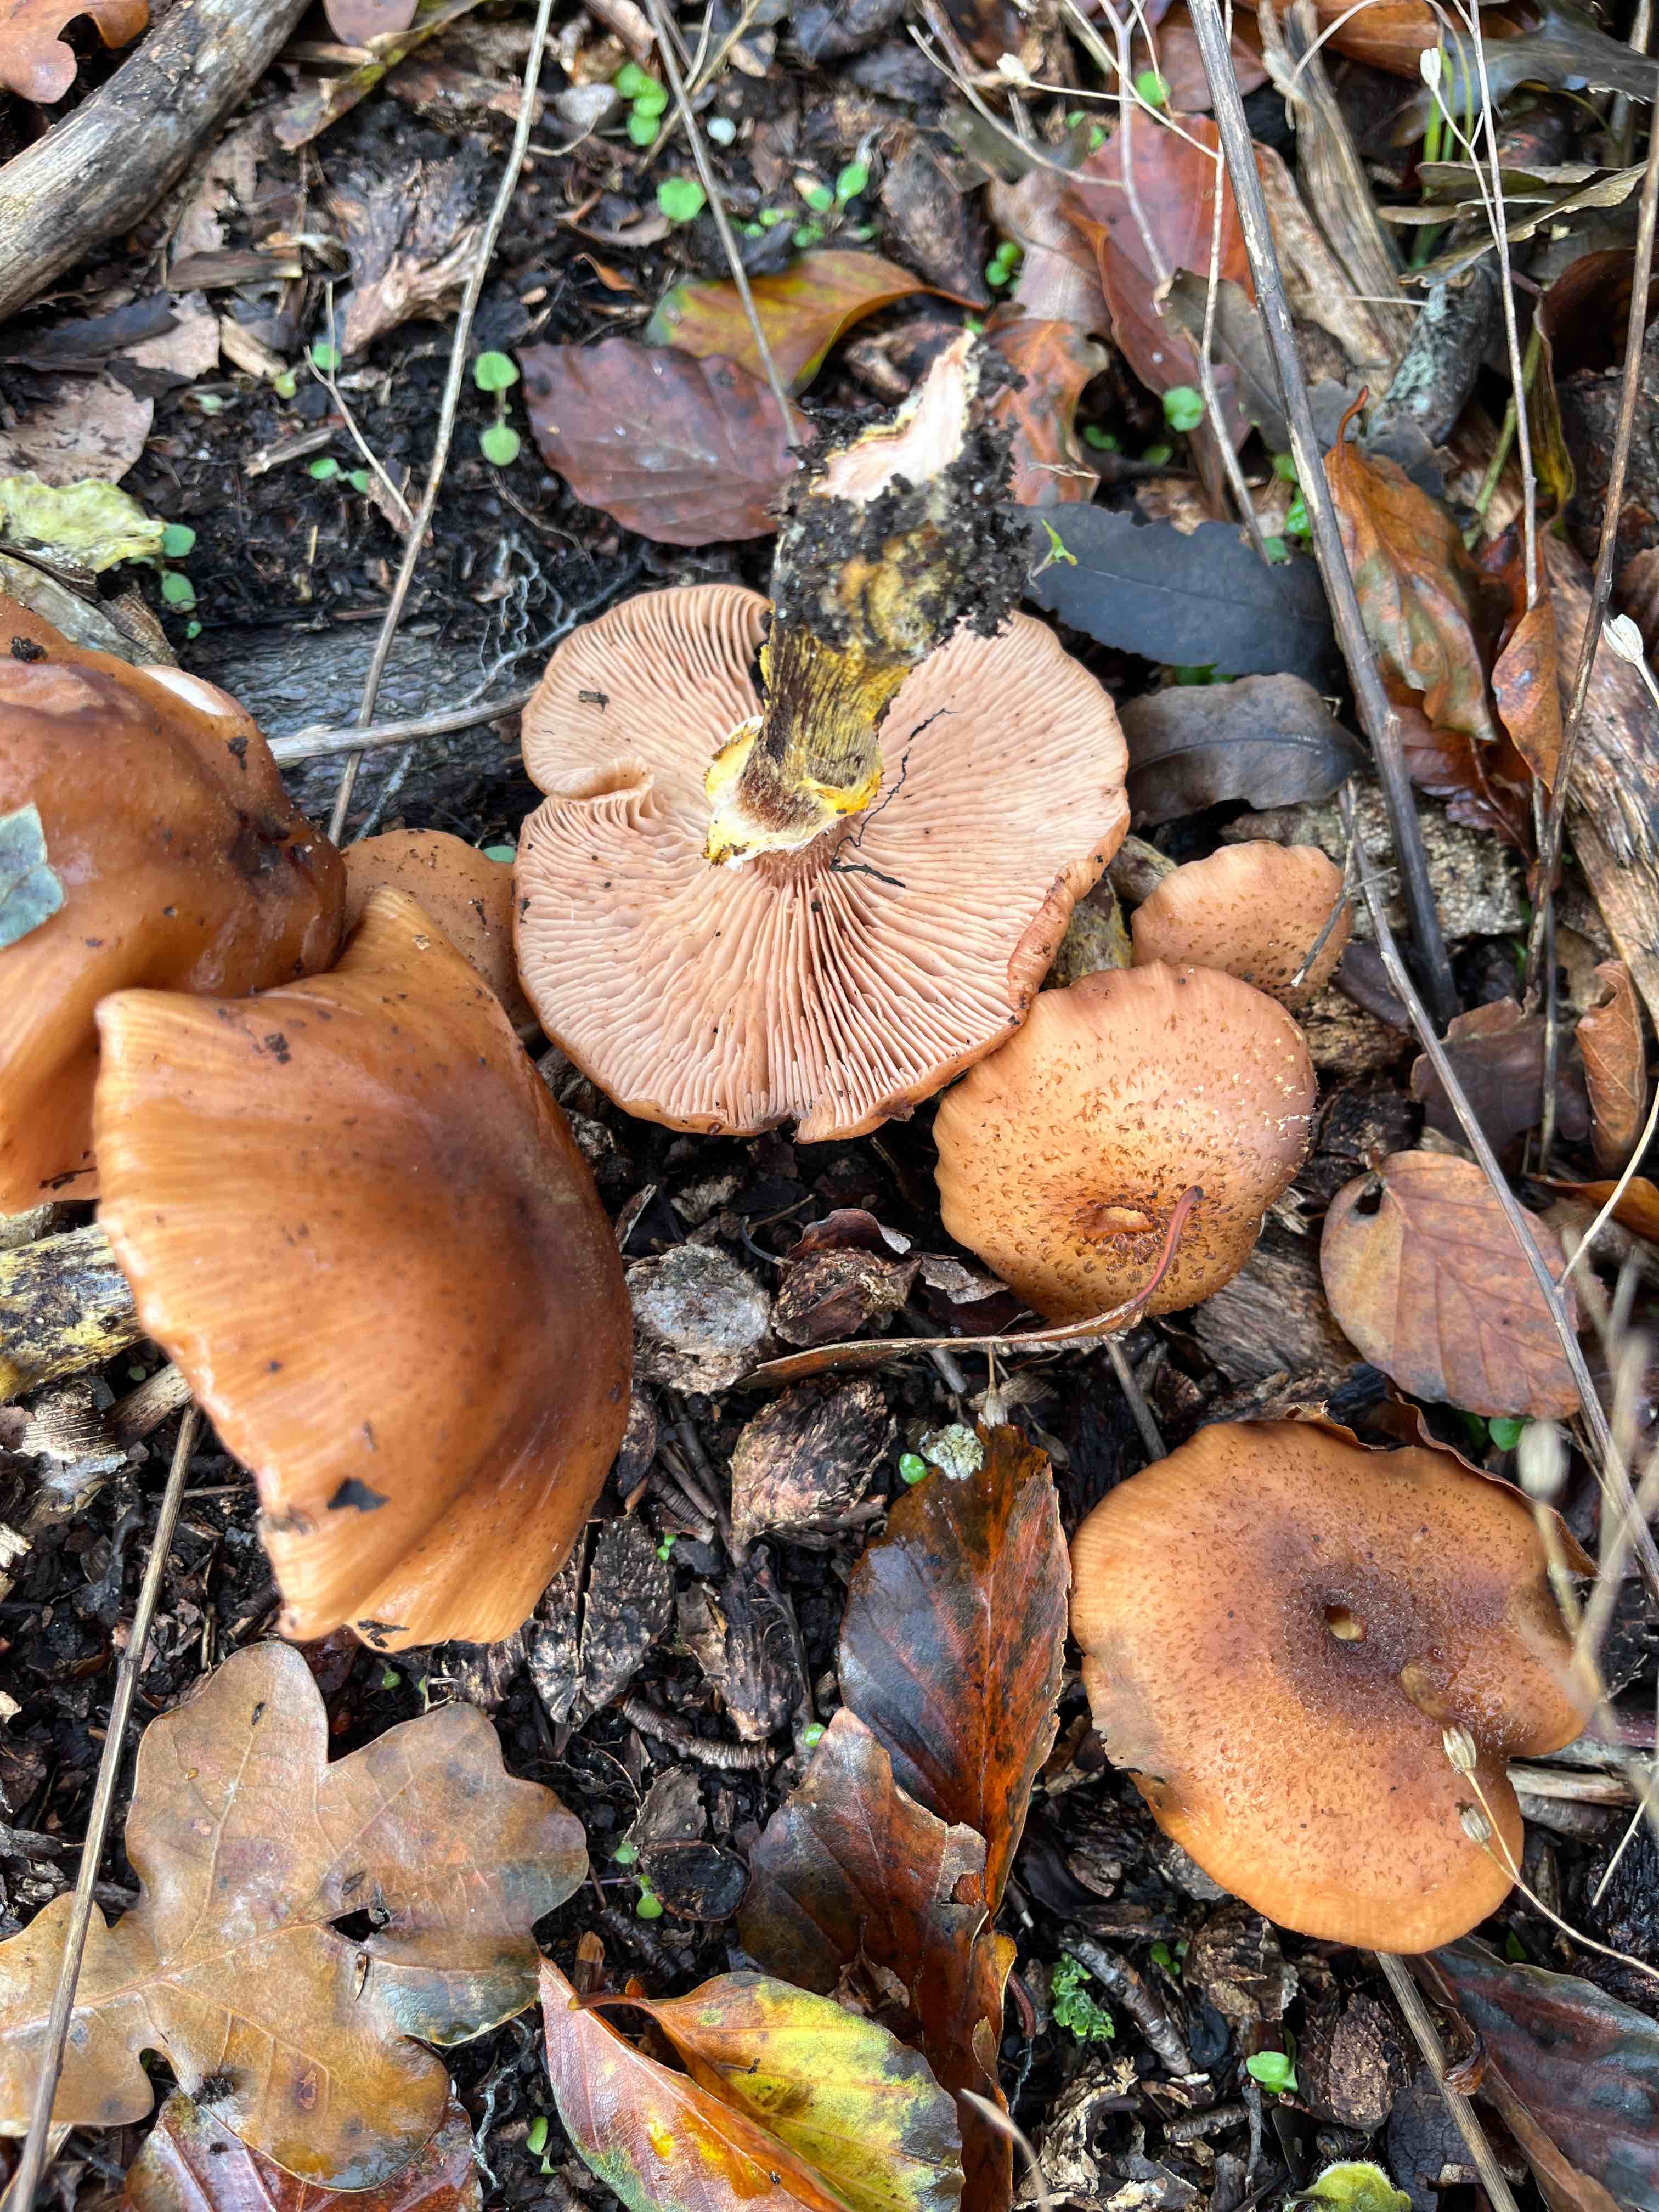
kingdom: Fungi
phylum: Basidiomycota
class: Agaricomycetes
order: Agaricales
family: Physalacriaceae
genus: Armillaria
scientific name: Armillaria lutea
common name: køllestokket honningsvamp
